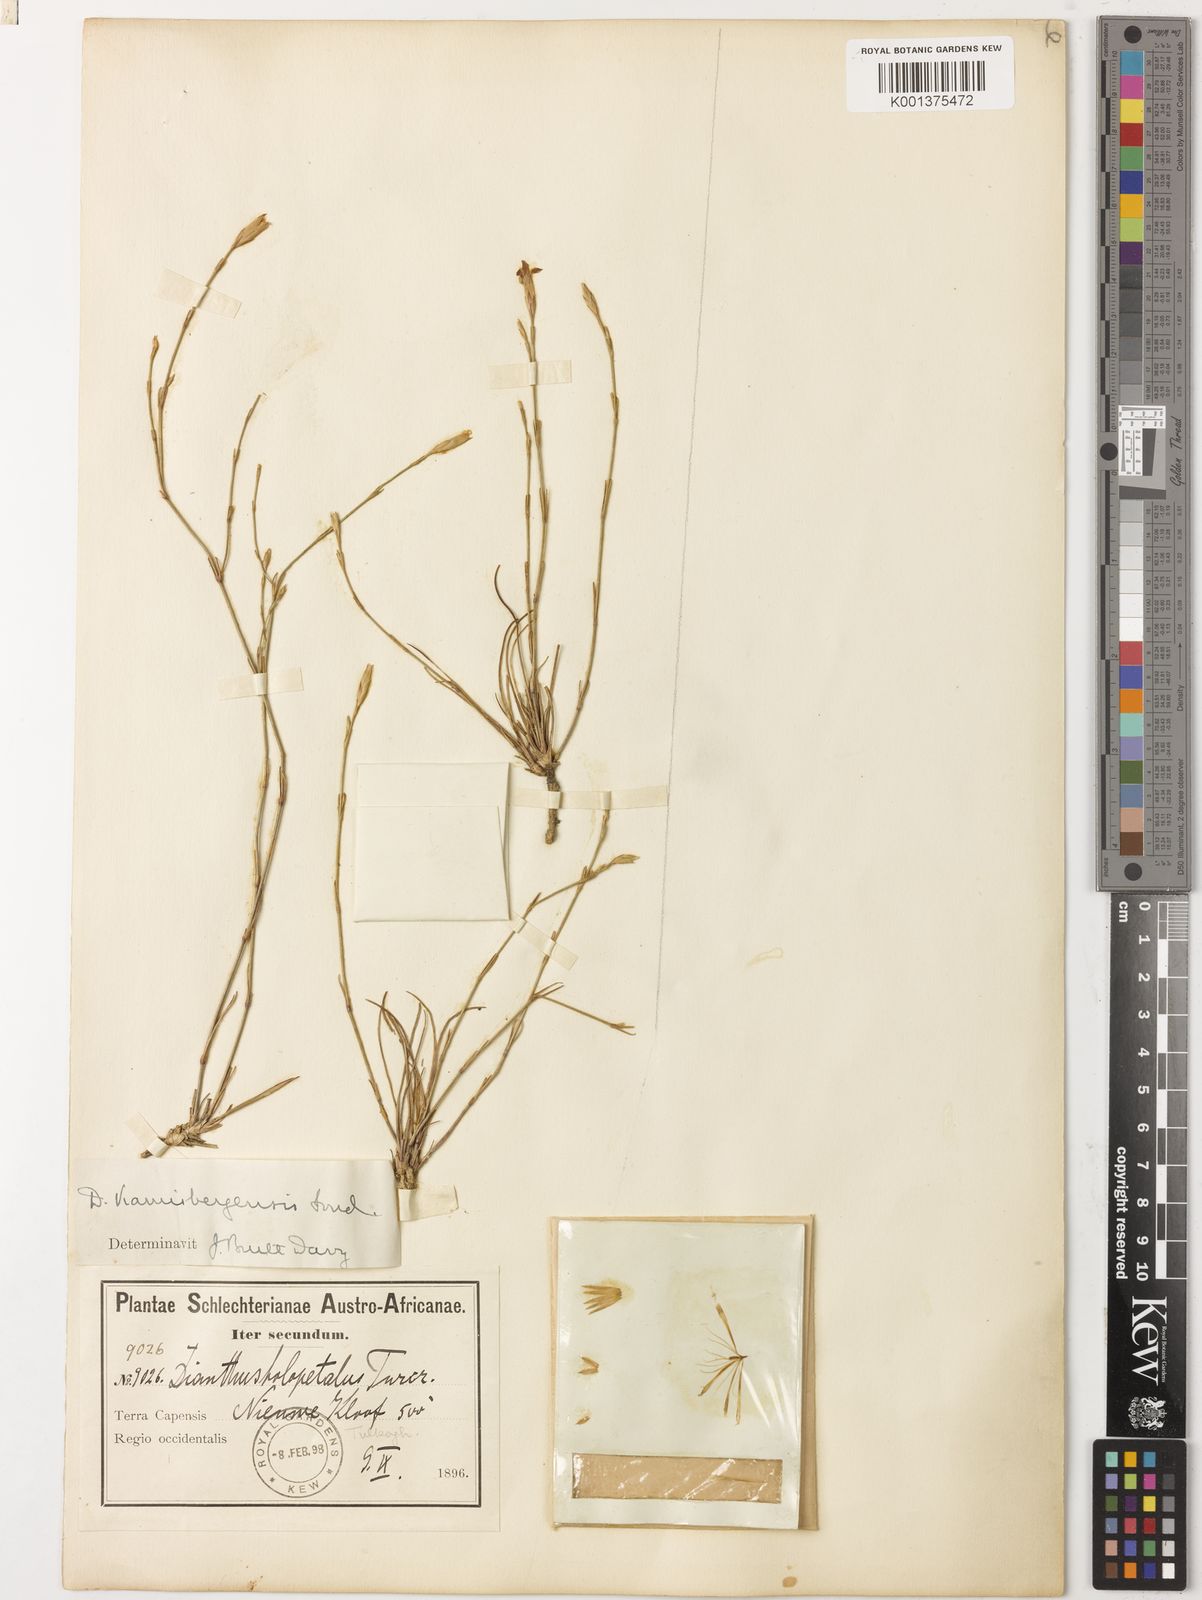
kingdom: Plantae
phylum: Tracheophyta
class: Magnoliopsida
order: Caryophyllales
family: Caryophyllaceae
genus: Dianthus
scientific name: Dianthus
